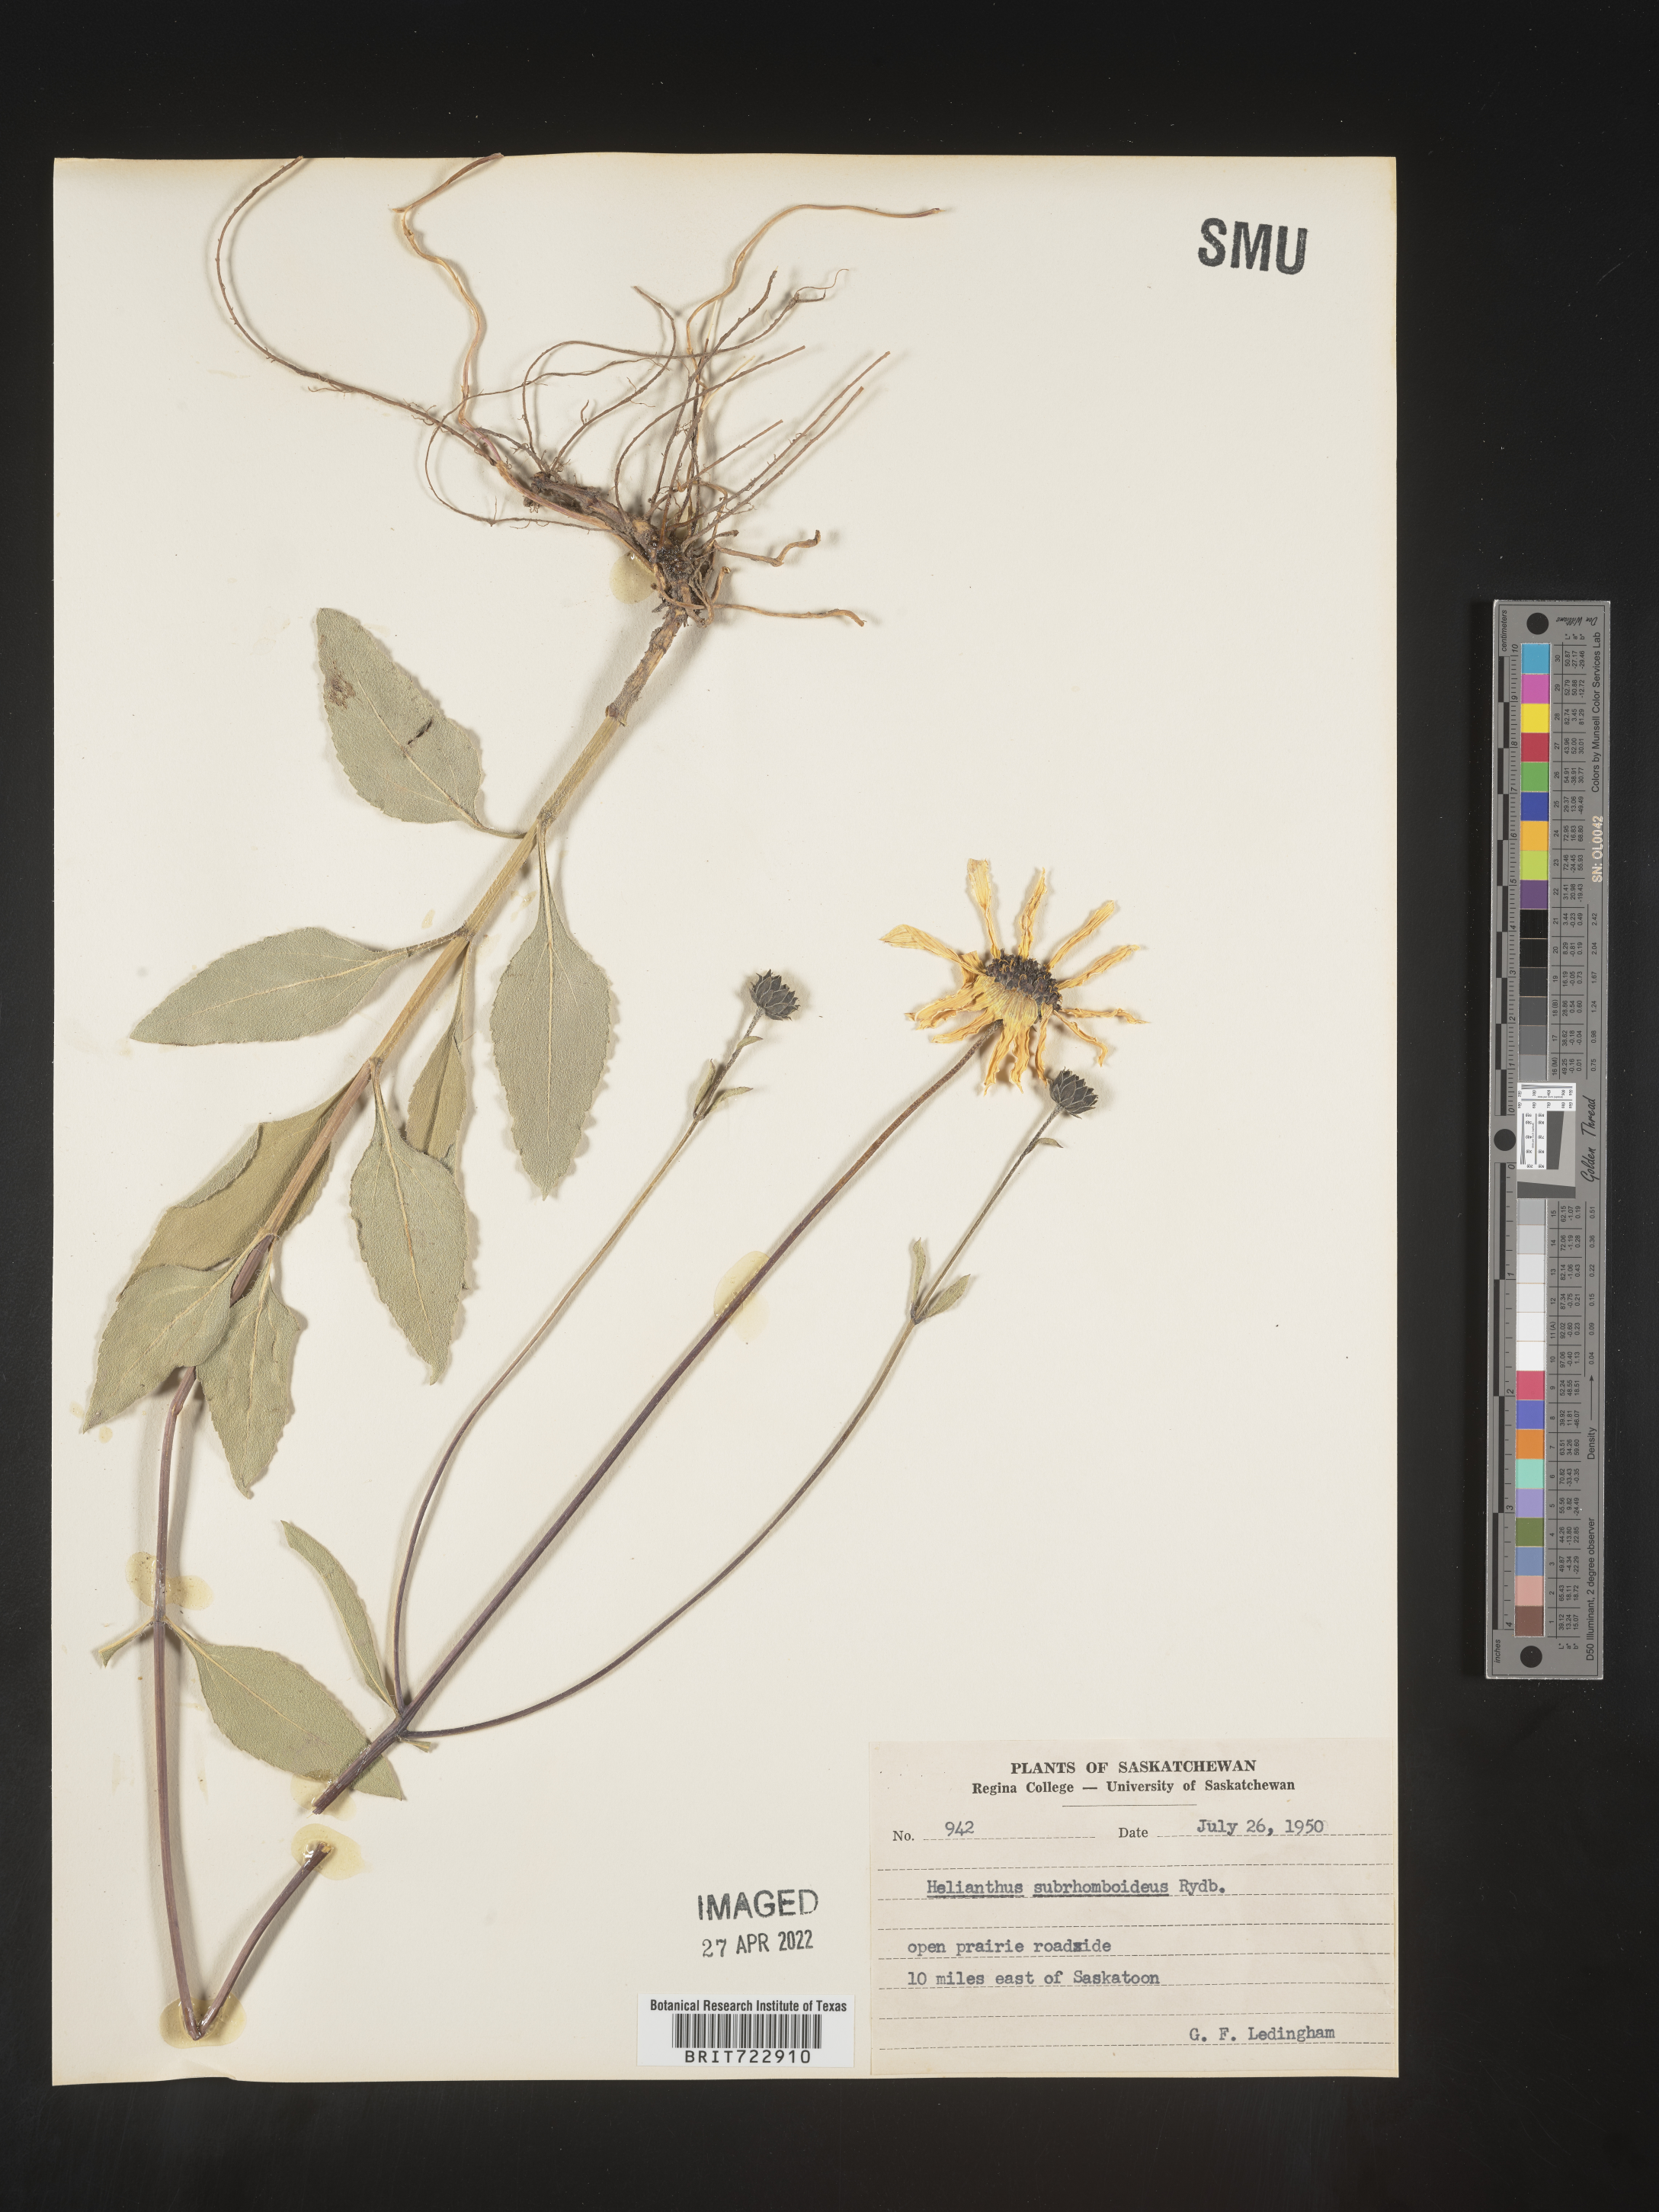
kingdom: Plantae
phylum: Tracheophyta
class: Magnoliopsida
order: Asterales
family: Asteraceae
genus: Helianthus
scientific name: Helianthus
